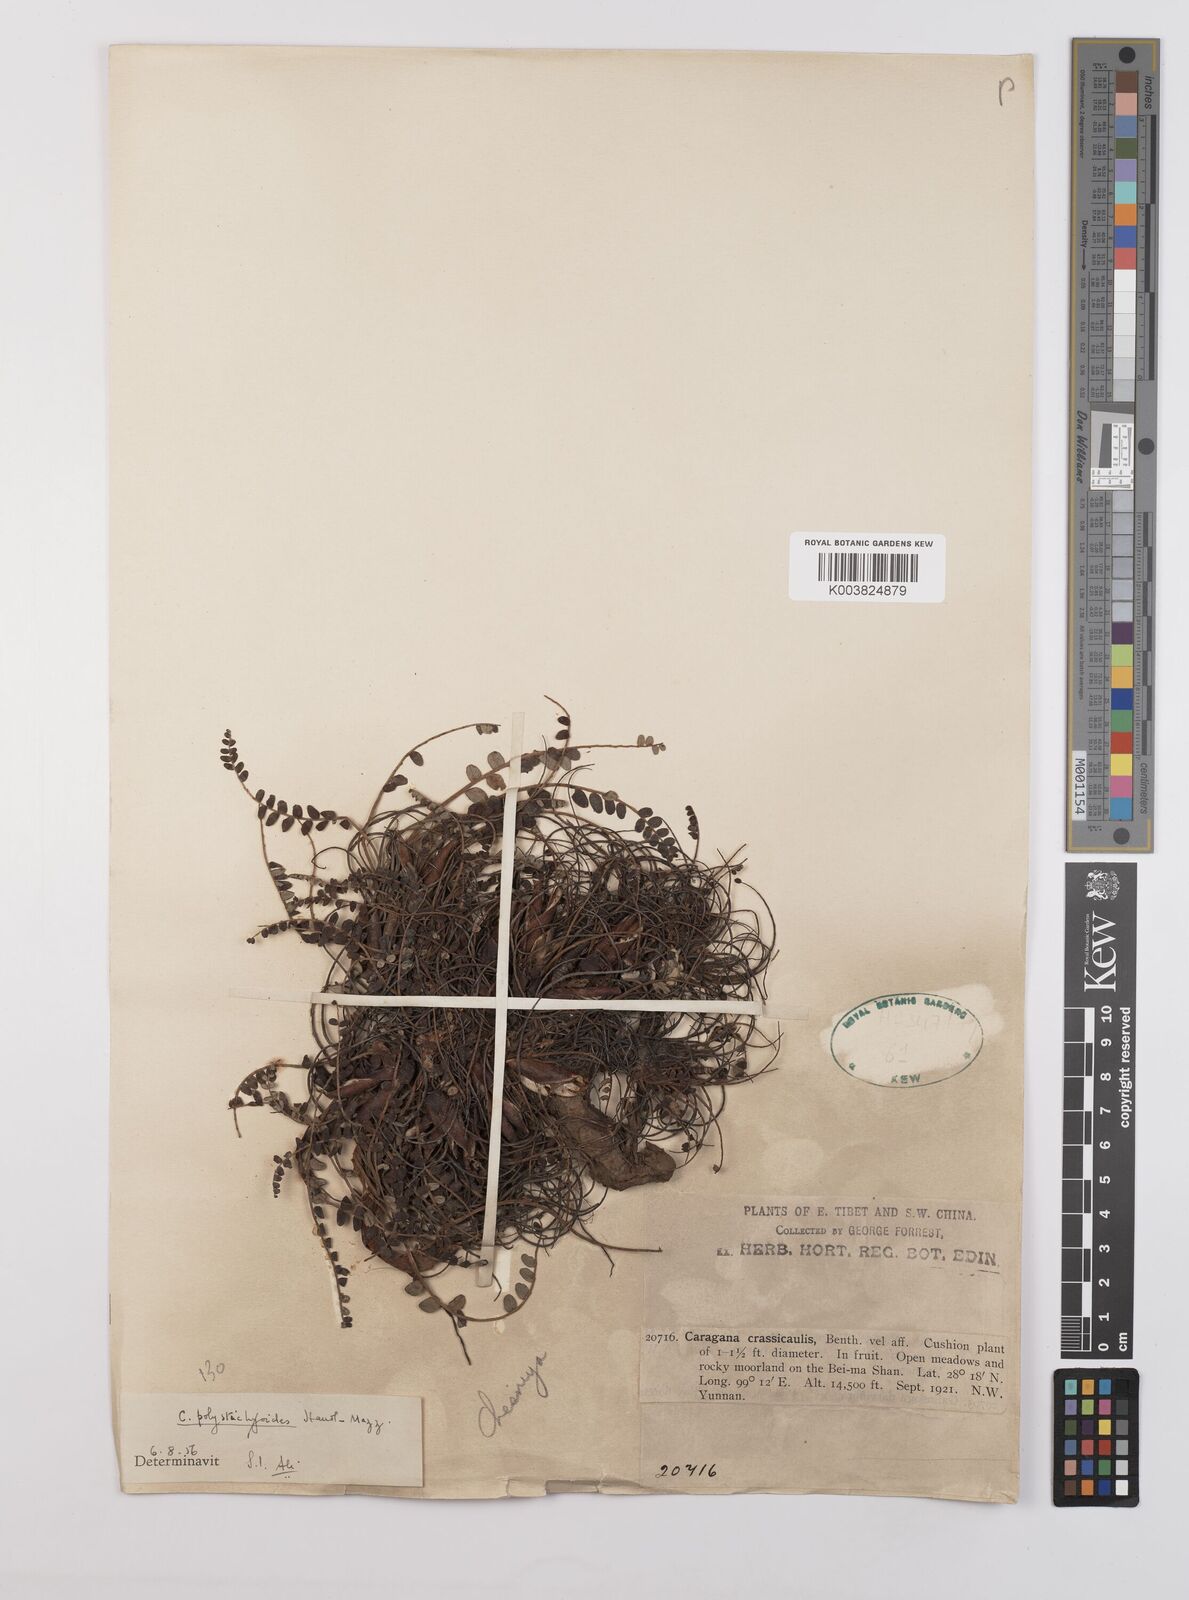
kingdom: Plantae
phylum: Tracheophyta
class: Magnoliopsida
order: Fabales
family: Fabaceae
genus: Chesneya
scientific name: Chesneya polystichoides
